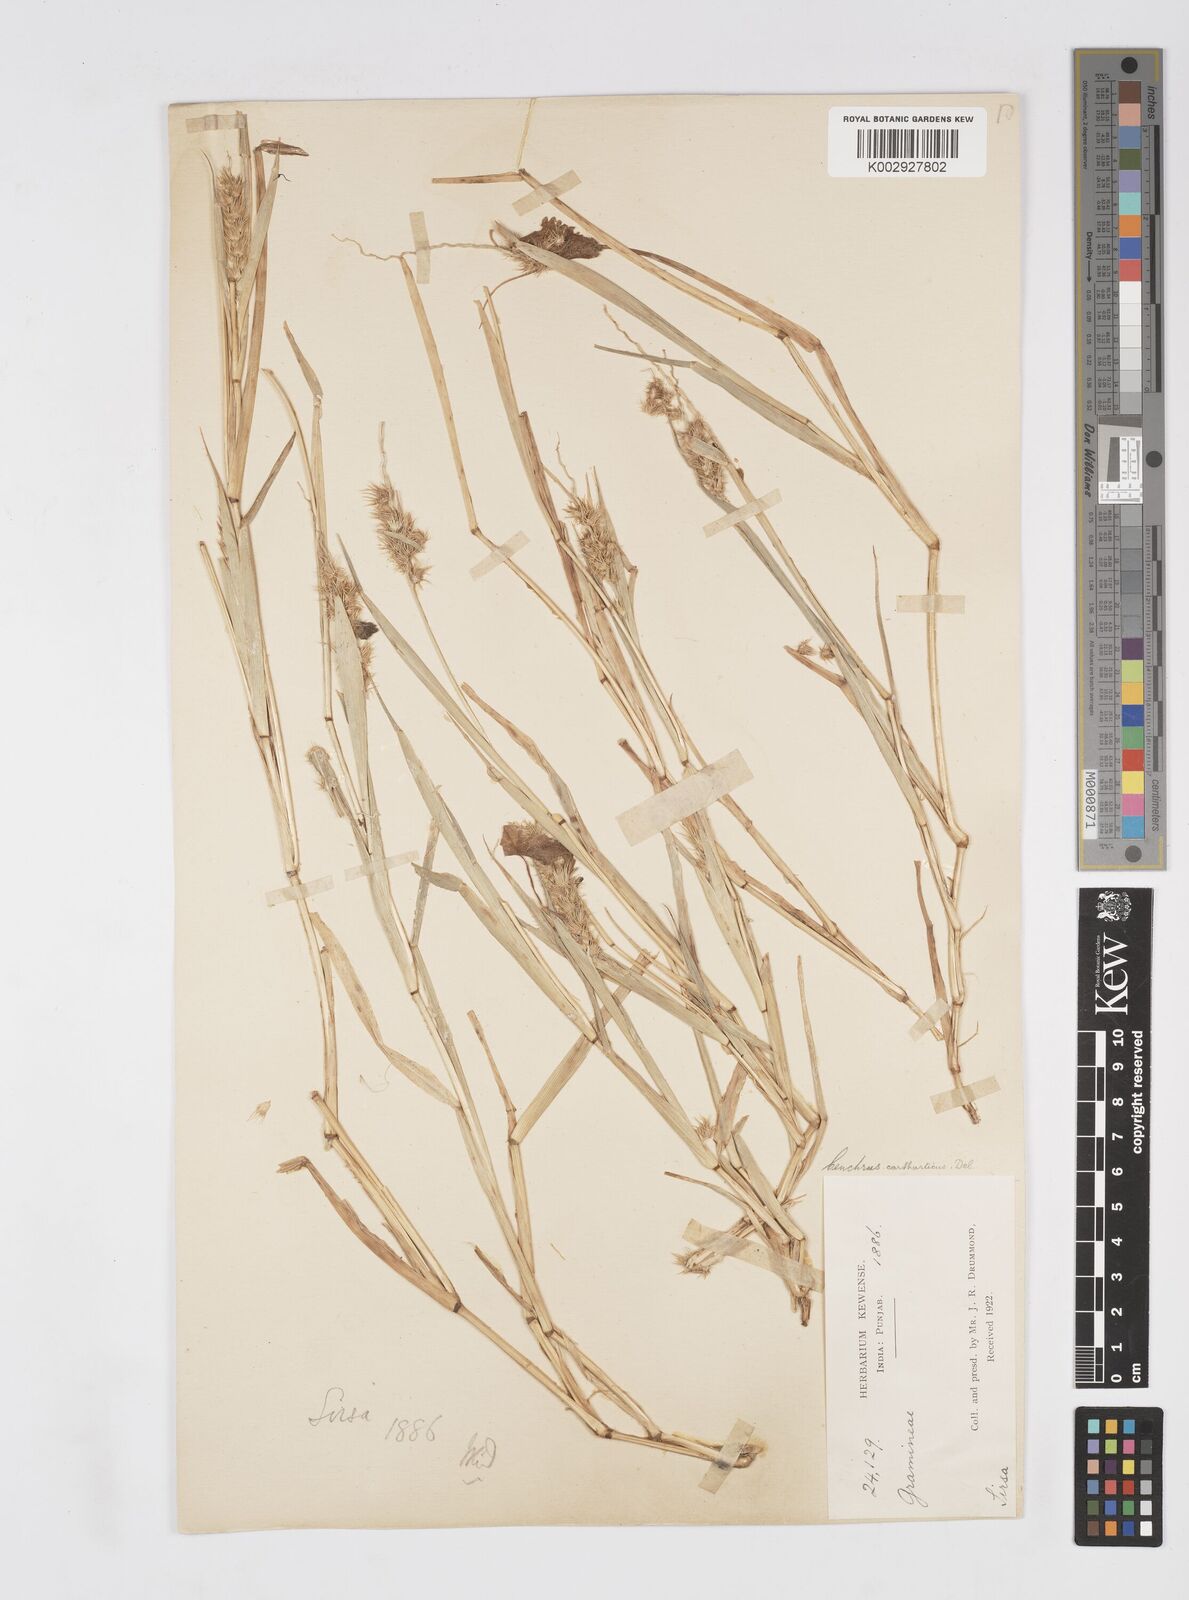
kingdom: Plantae
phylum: Tracheophyta
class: Liliopsida
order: Poales
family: Poaceae
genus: Cenchrus
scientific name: Cenchrus biflorus
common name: Indian sandbur
